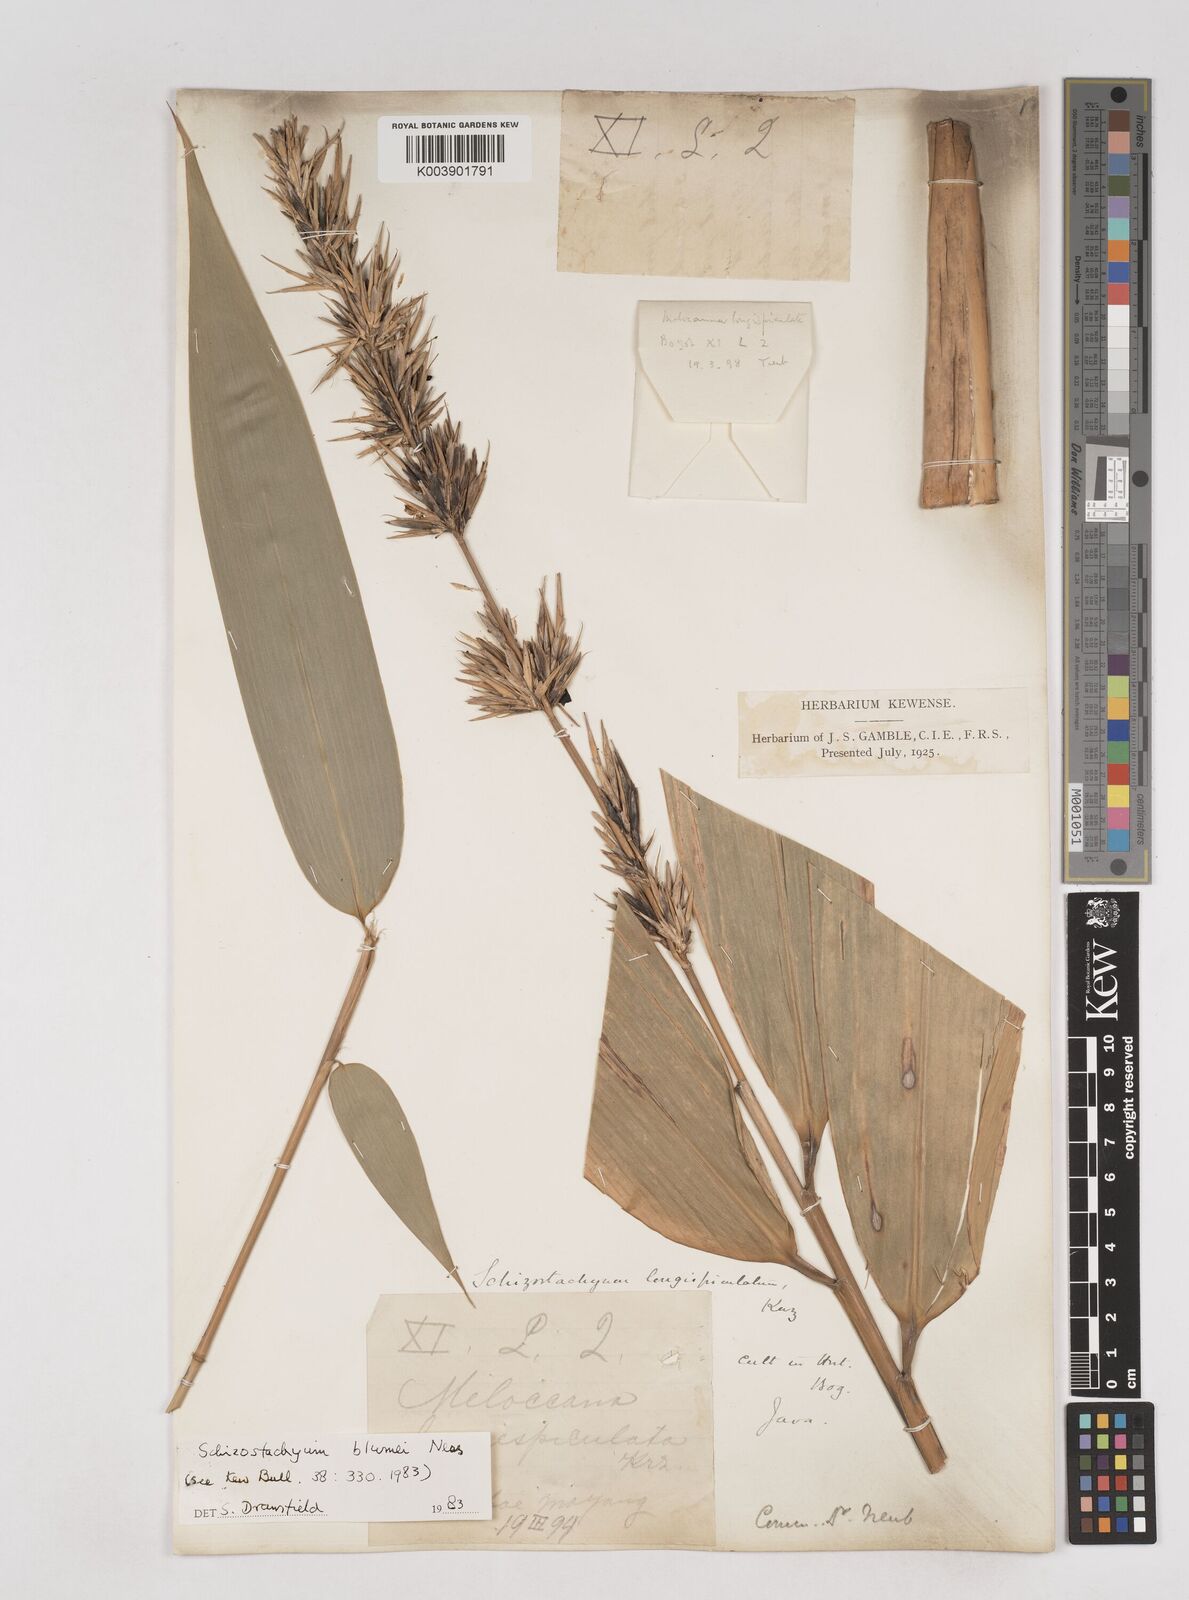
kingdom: Plantae
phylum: Tracheophyta
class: Liliopsida
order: Poales
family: Poaceae
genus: Schizostachyum
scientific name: Schizostachyum blumei
